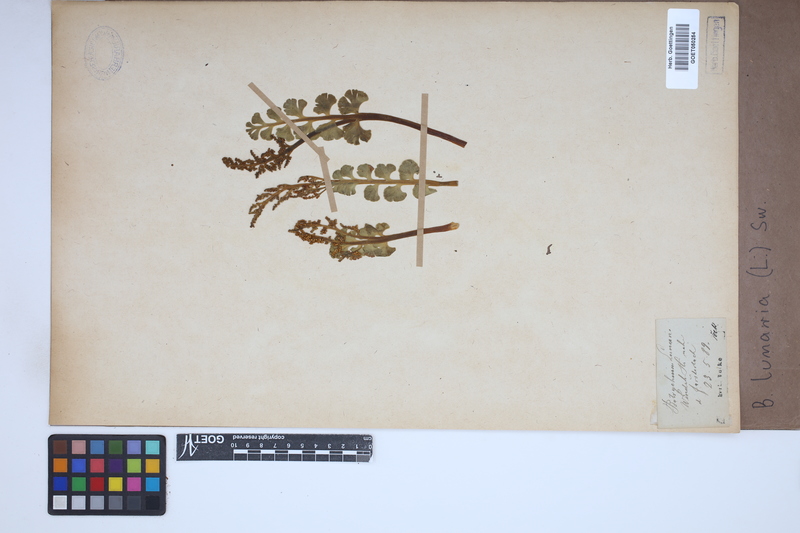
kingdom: Plantae
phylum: Tracheophyta
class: Polypodiopsida
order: Ophioglossales
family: Ophioglossaceae
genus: Botrychium
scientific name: Botrychium lunaria
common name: Moonwort
